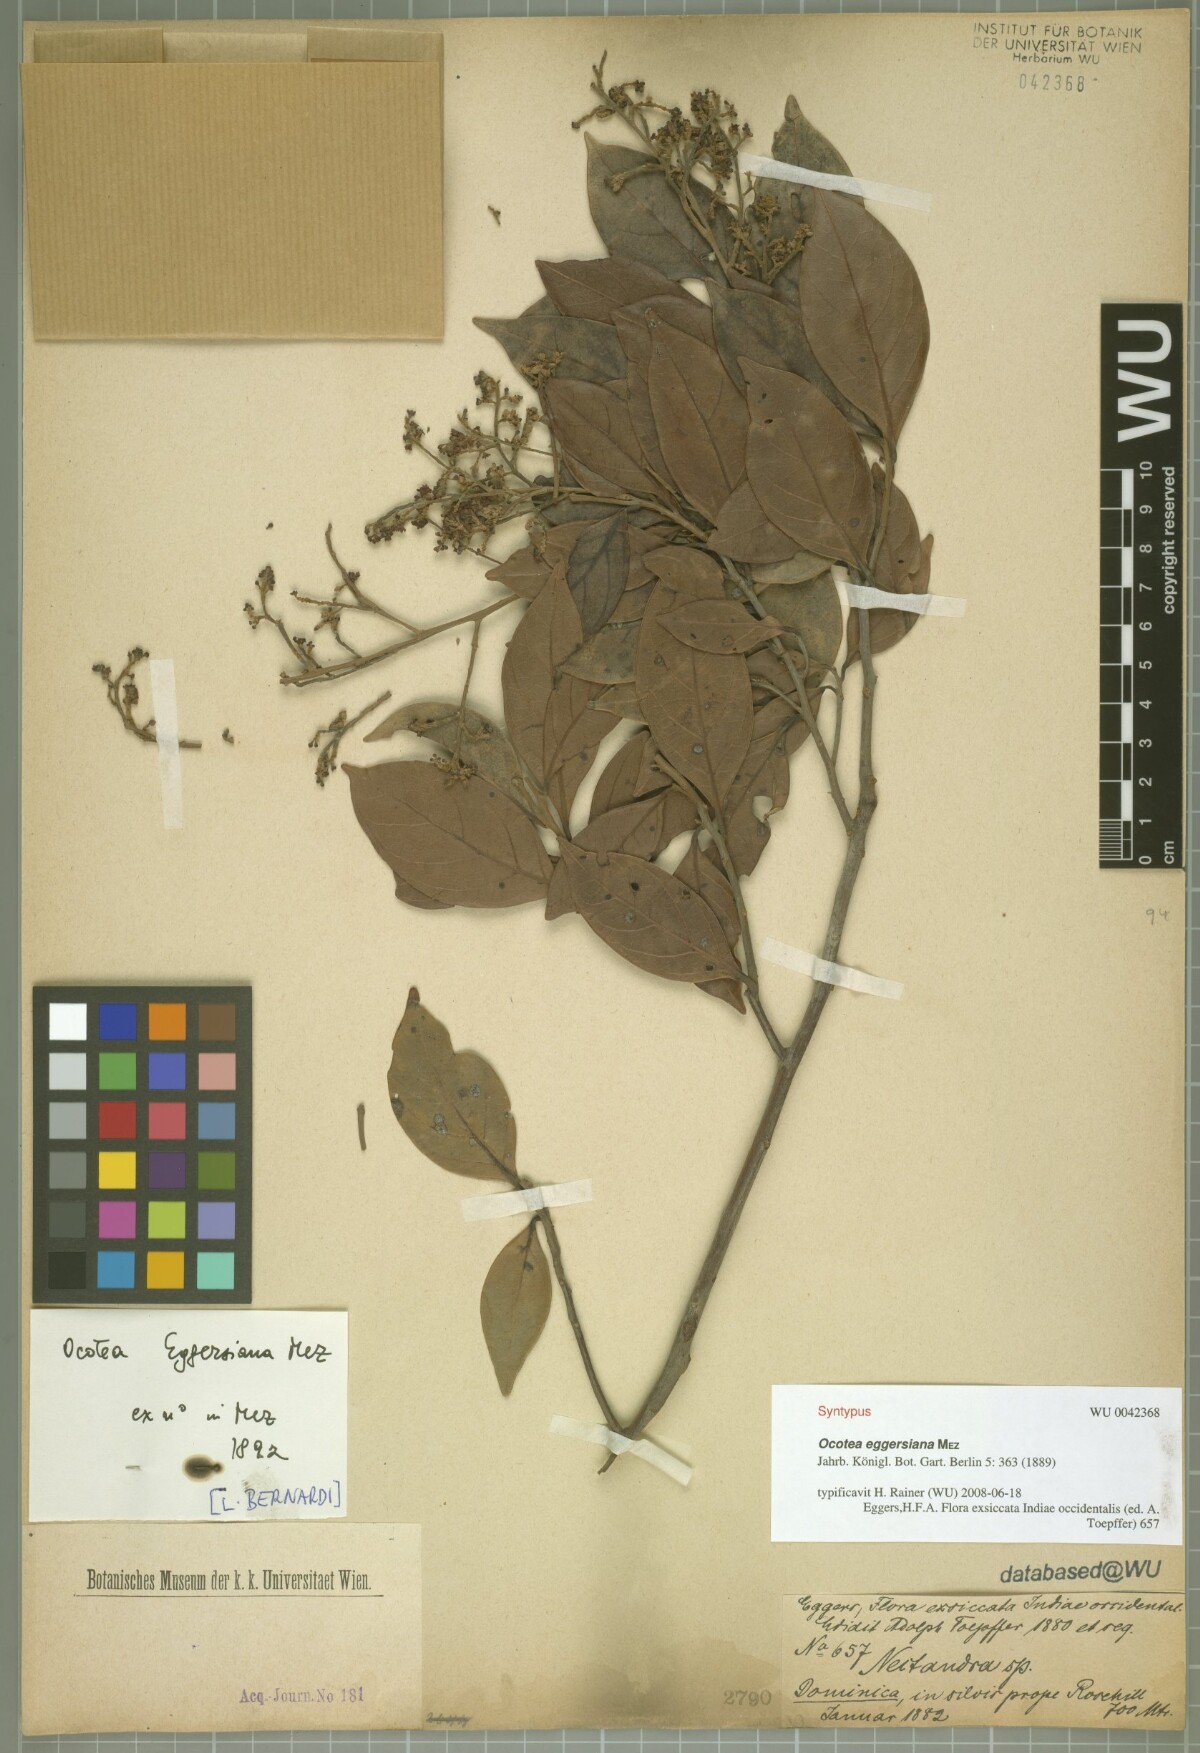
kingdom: Plantae
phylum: Tracheophyta
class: Magnoliopsida
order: Laurales
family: Lauraceae
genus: Ocotea
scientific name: Ocotea eggersiana
